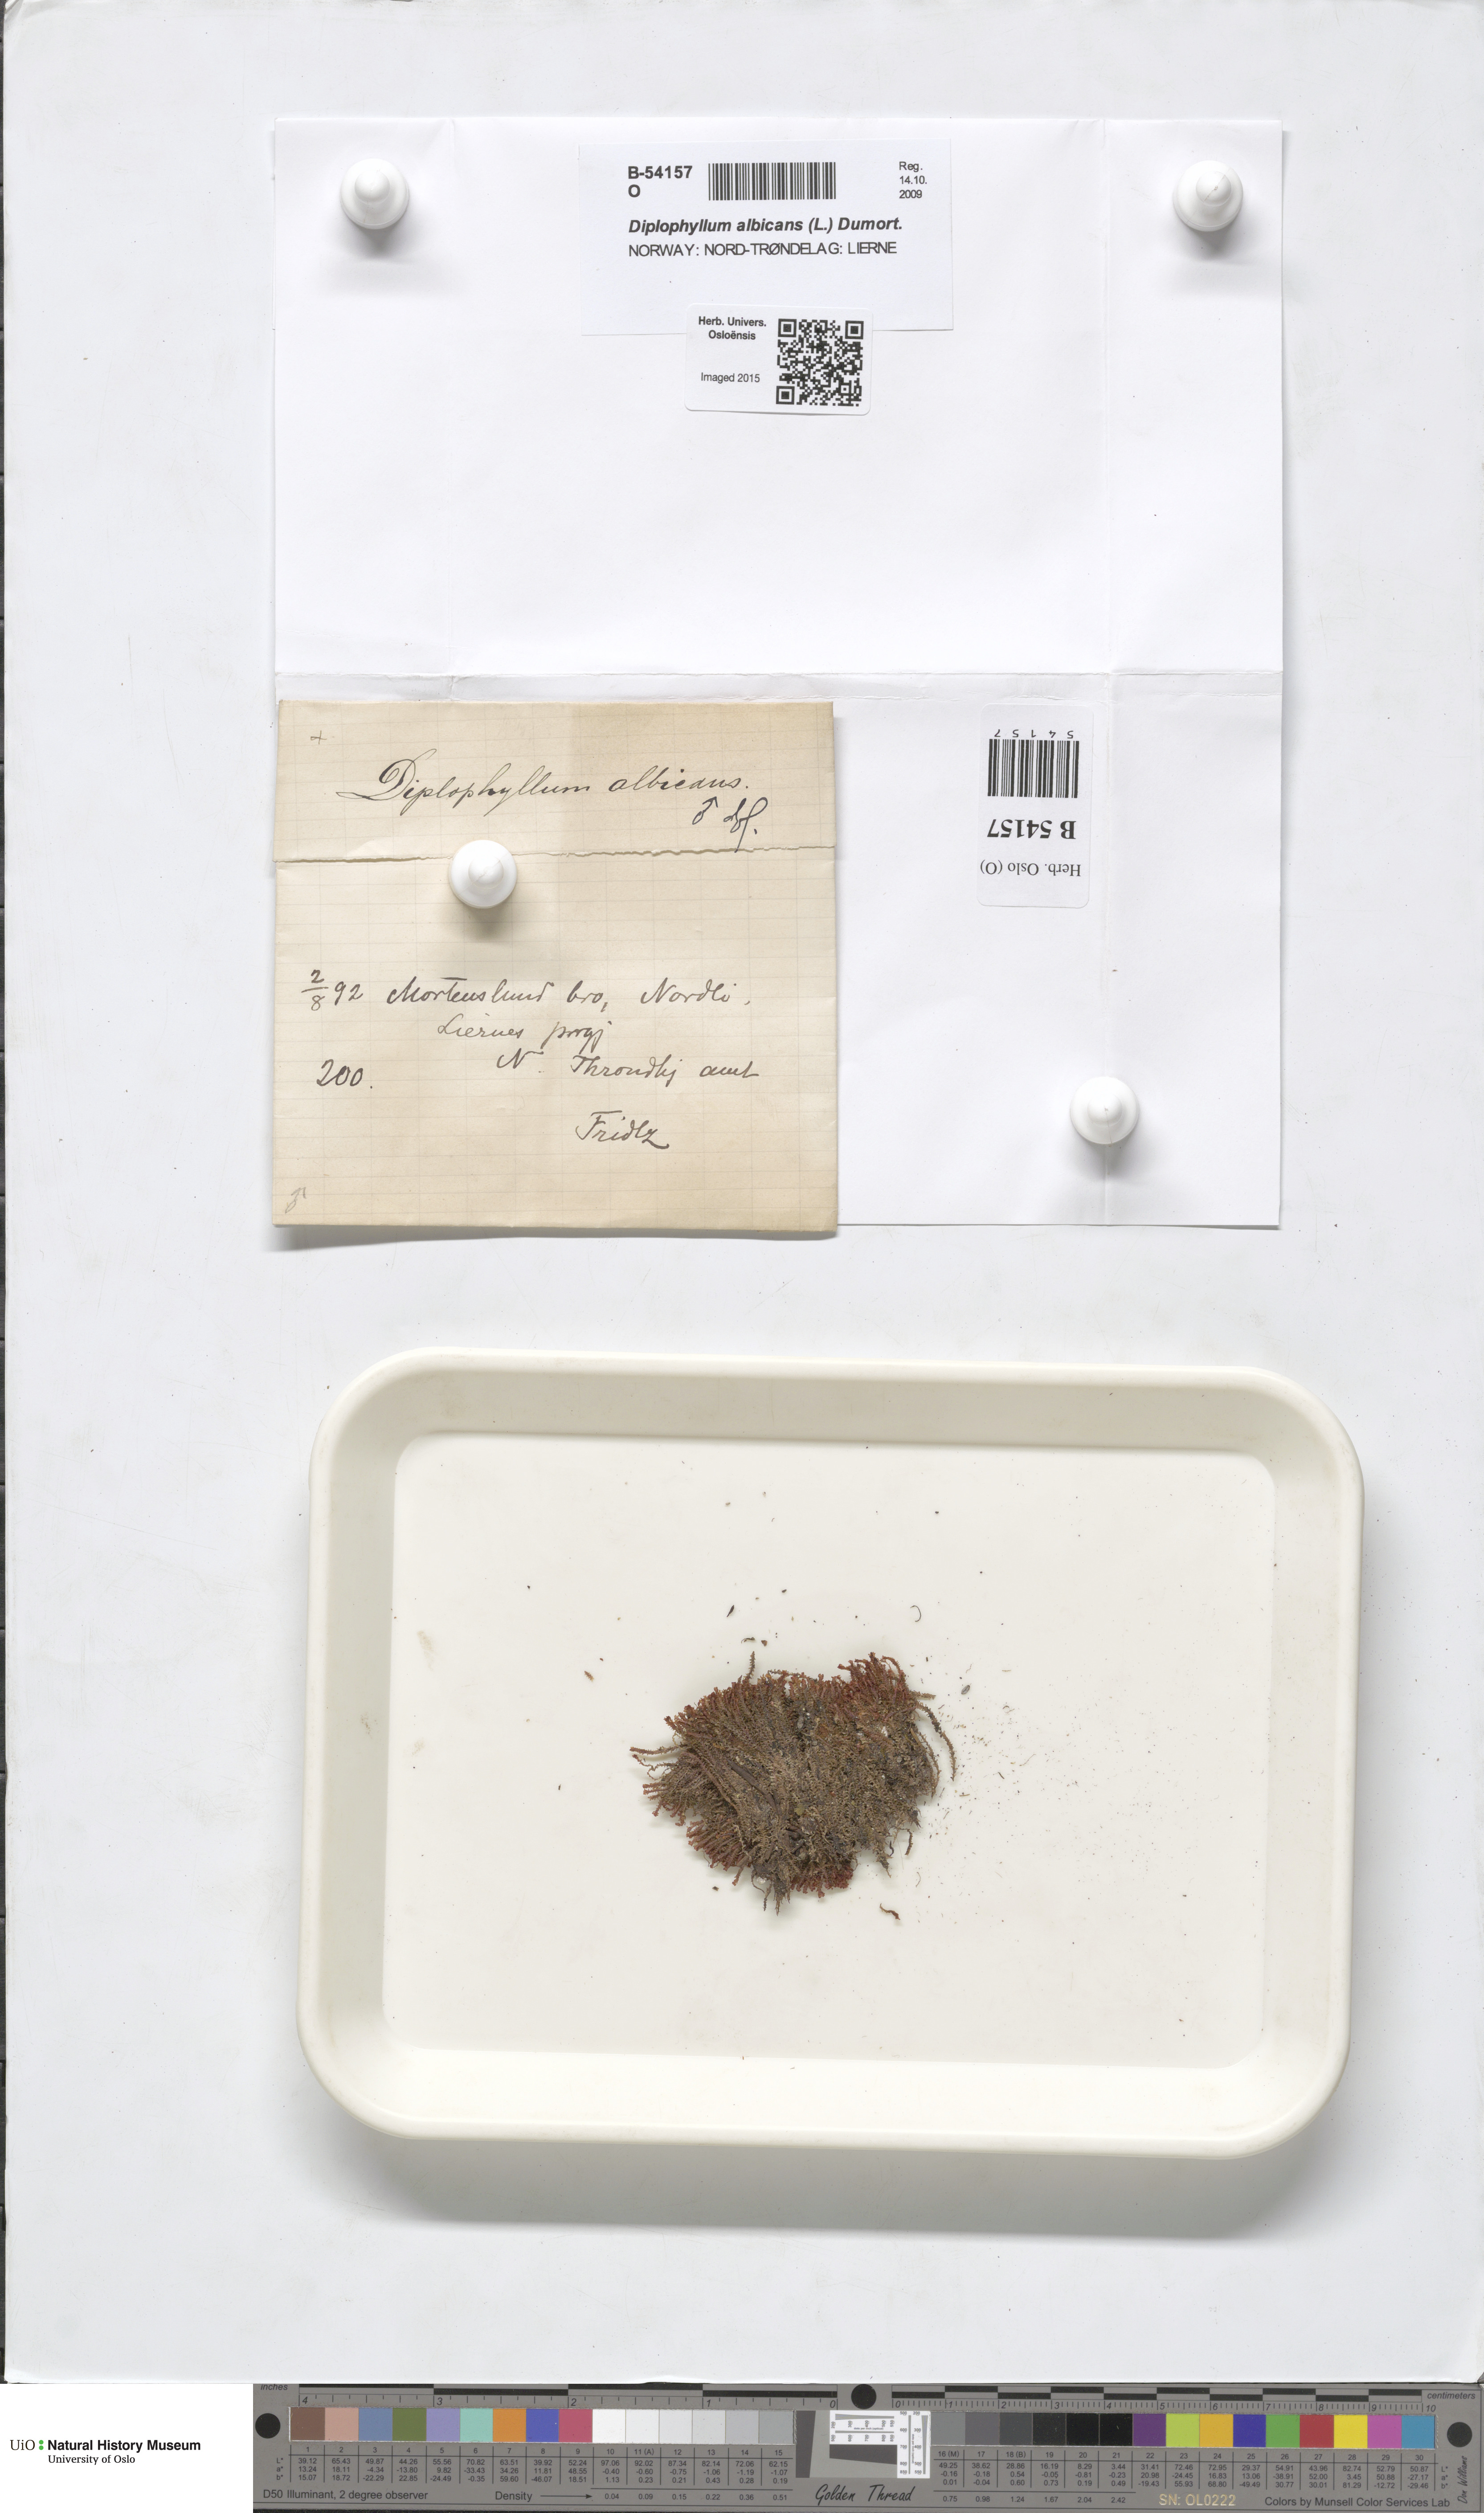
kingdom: Plantae
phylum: Marchantiophyta
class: Jungermanniopsida
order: Jungermanniales
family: Scapaniaceae
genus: Diplophyllum
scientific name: Diplophyllum albicans
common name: White earwort
